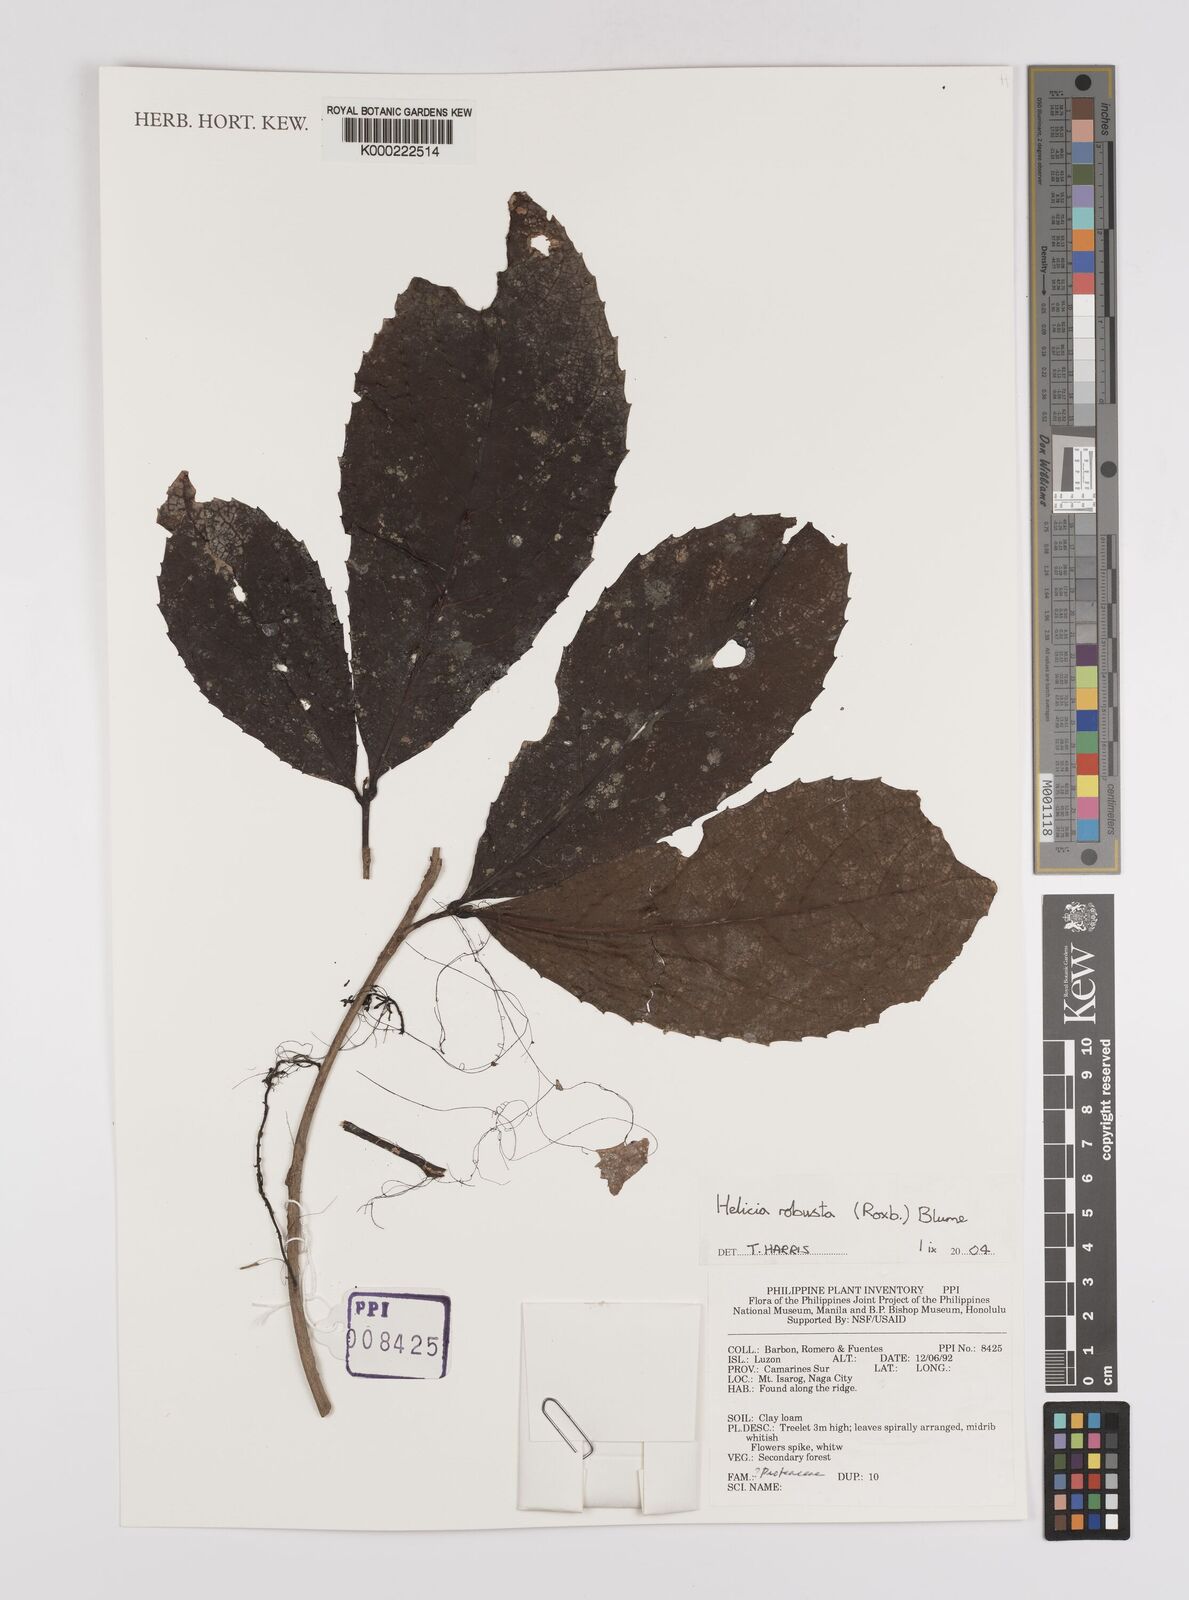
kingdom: Plantae
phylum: Tracheophyta
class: Magnoliopsida
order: Proteales
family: Proteaceae
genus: Helicia
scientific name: Helicia robusta
